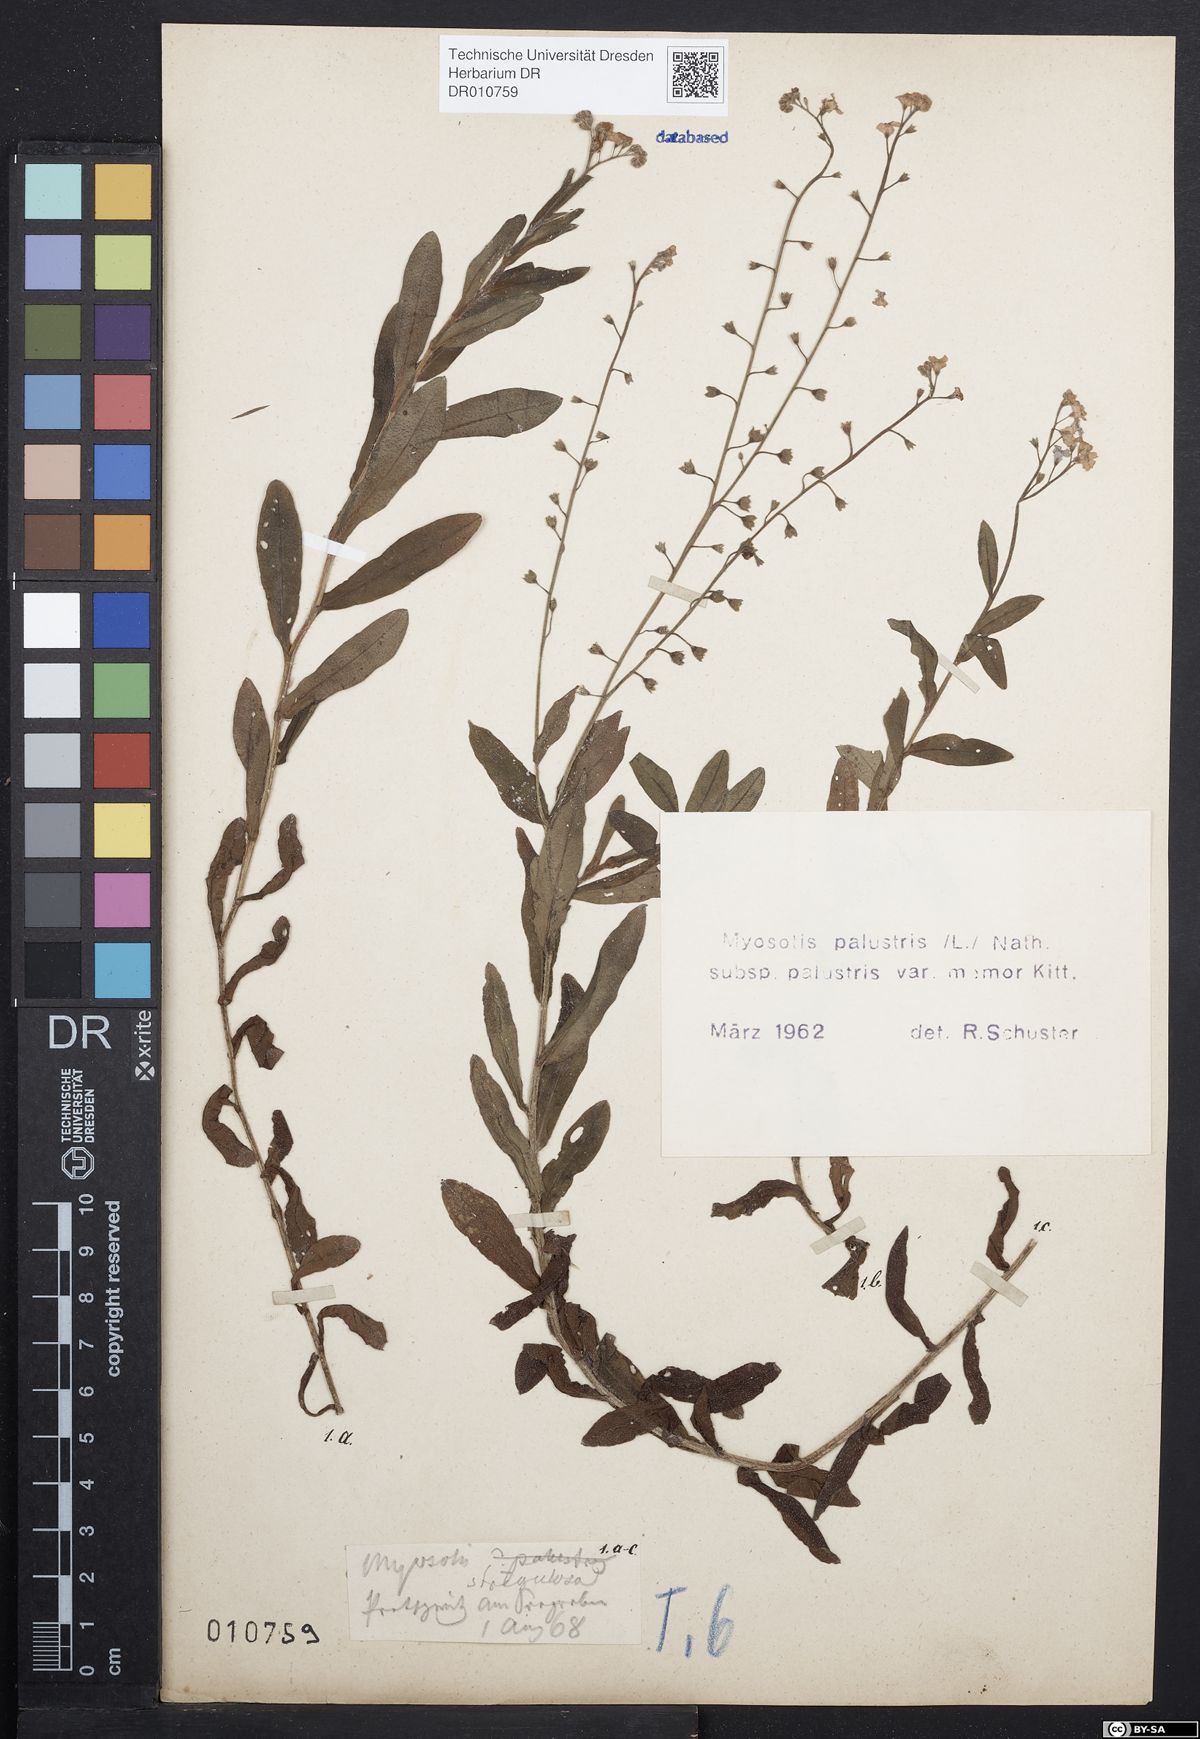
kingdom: Plantae
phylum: Tracheophyta
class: Magnoliopsida
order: Boraginales
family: Boraginaceae
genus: Myosotis
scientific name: Myosotis scorpioides
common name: Water forget-me-not
